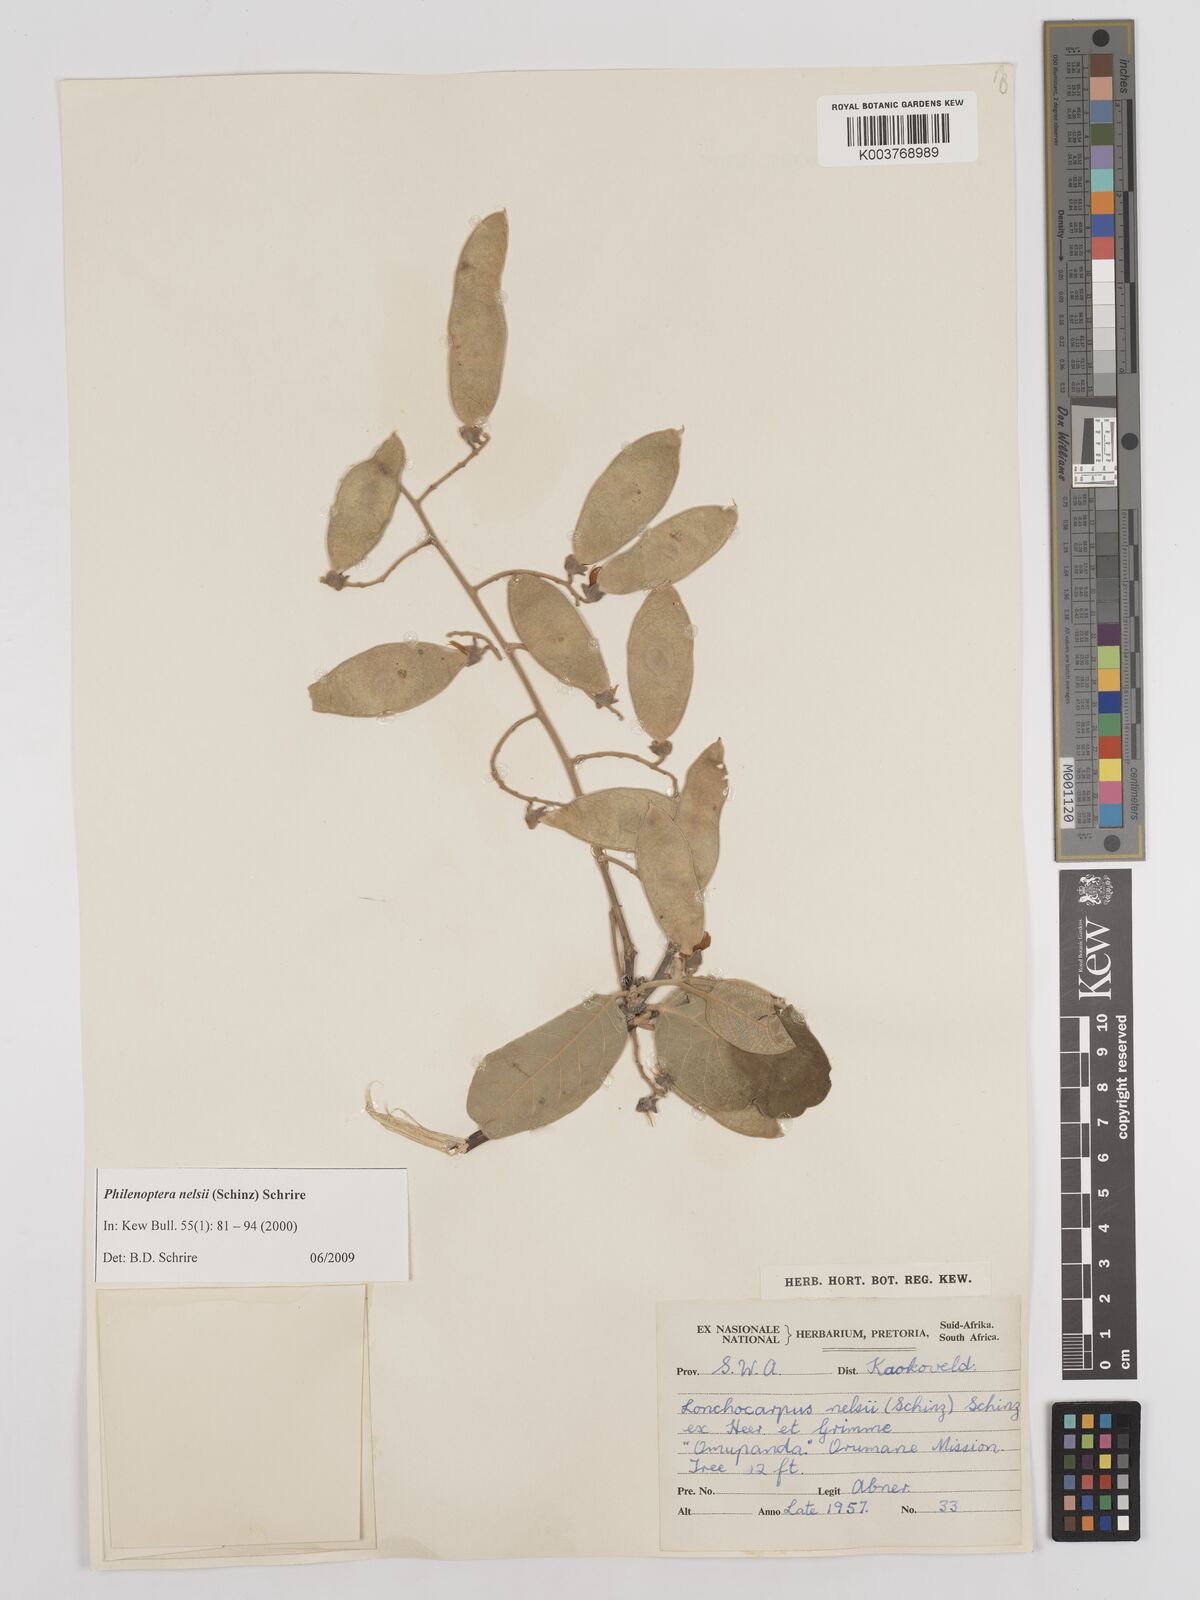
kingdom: Plantae
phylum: Tracheophyta
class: Magnoliopsida
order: Fabales
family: Fabaceae
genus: Philenoptera
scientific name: Philenoptera nelsii
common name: Kalahari apple-leaf
